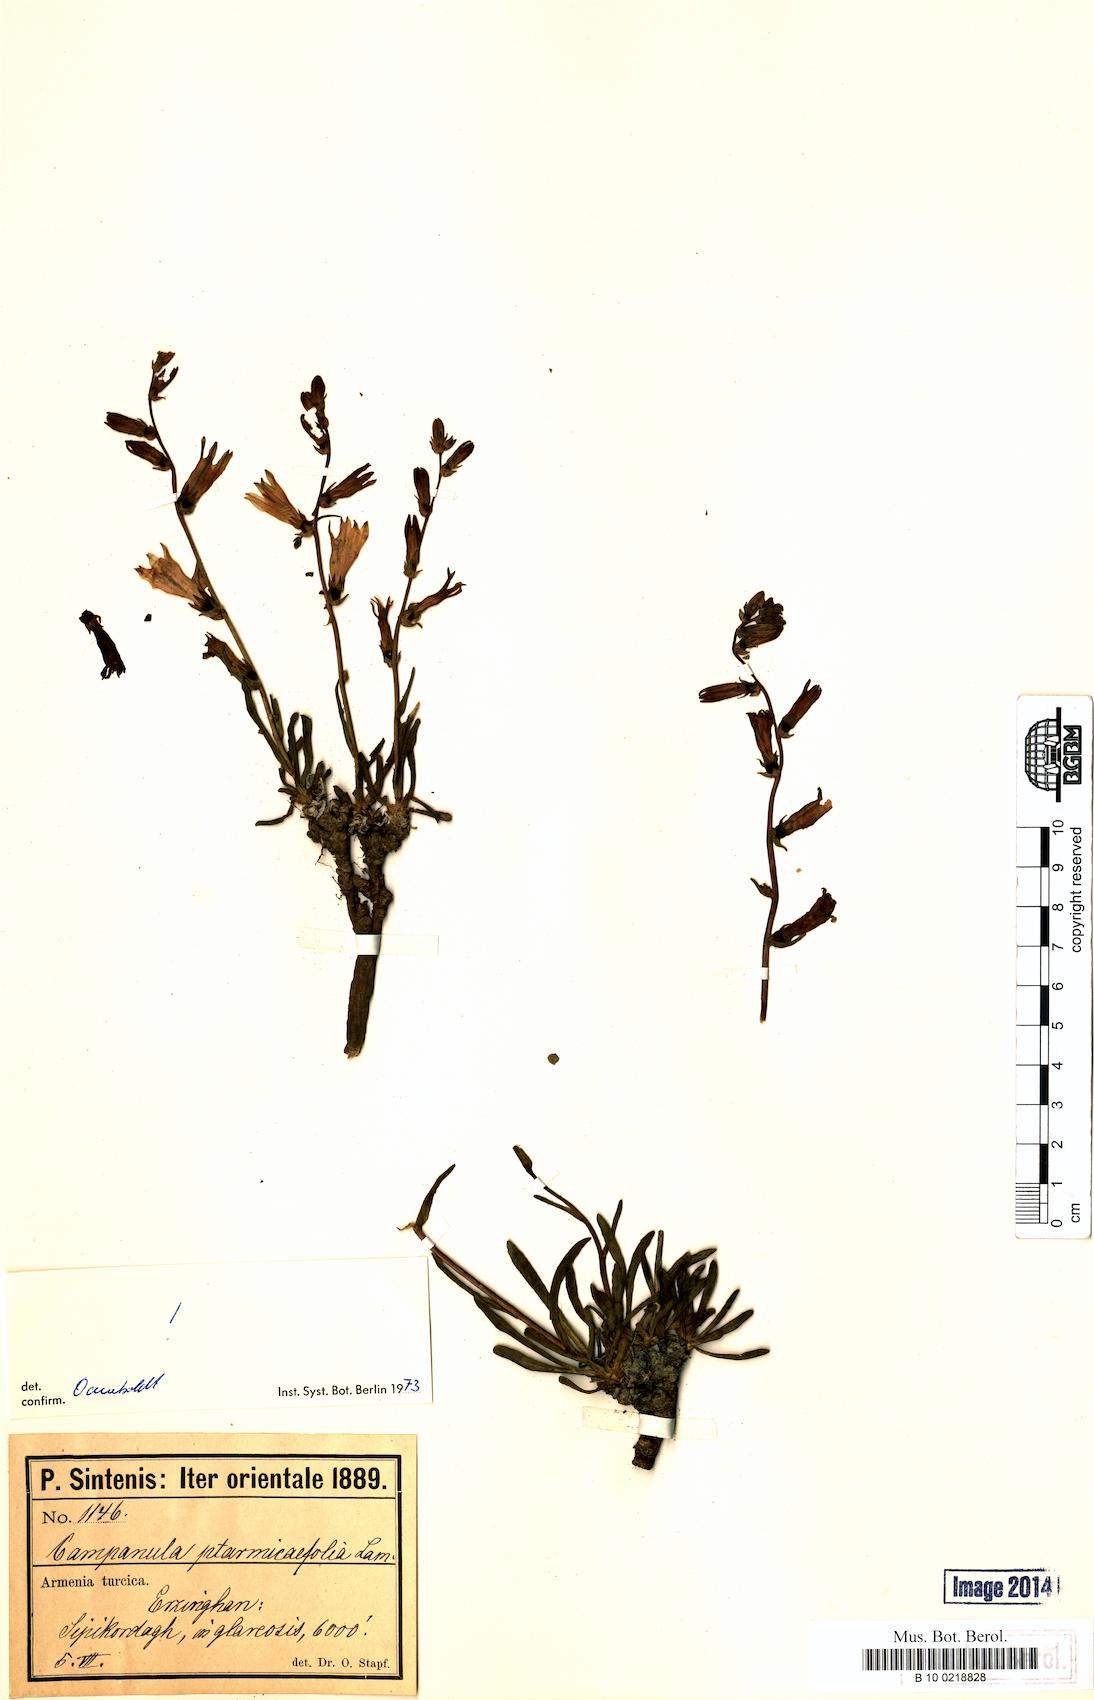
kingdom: Plantae
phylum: Tracheophyta
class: Magnoliopsida
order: Asterales
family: Campanulaceae
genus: Campanula
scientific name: Campanula ptarmicifolia
